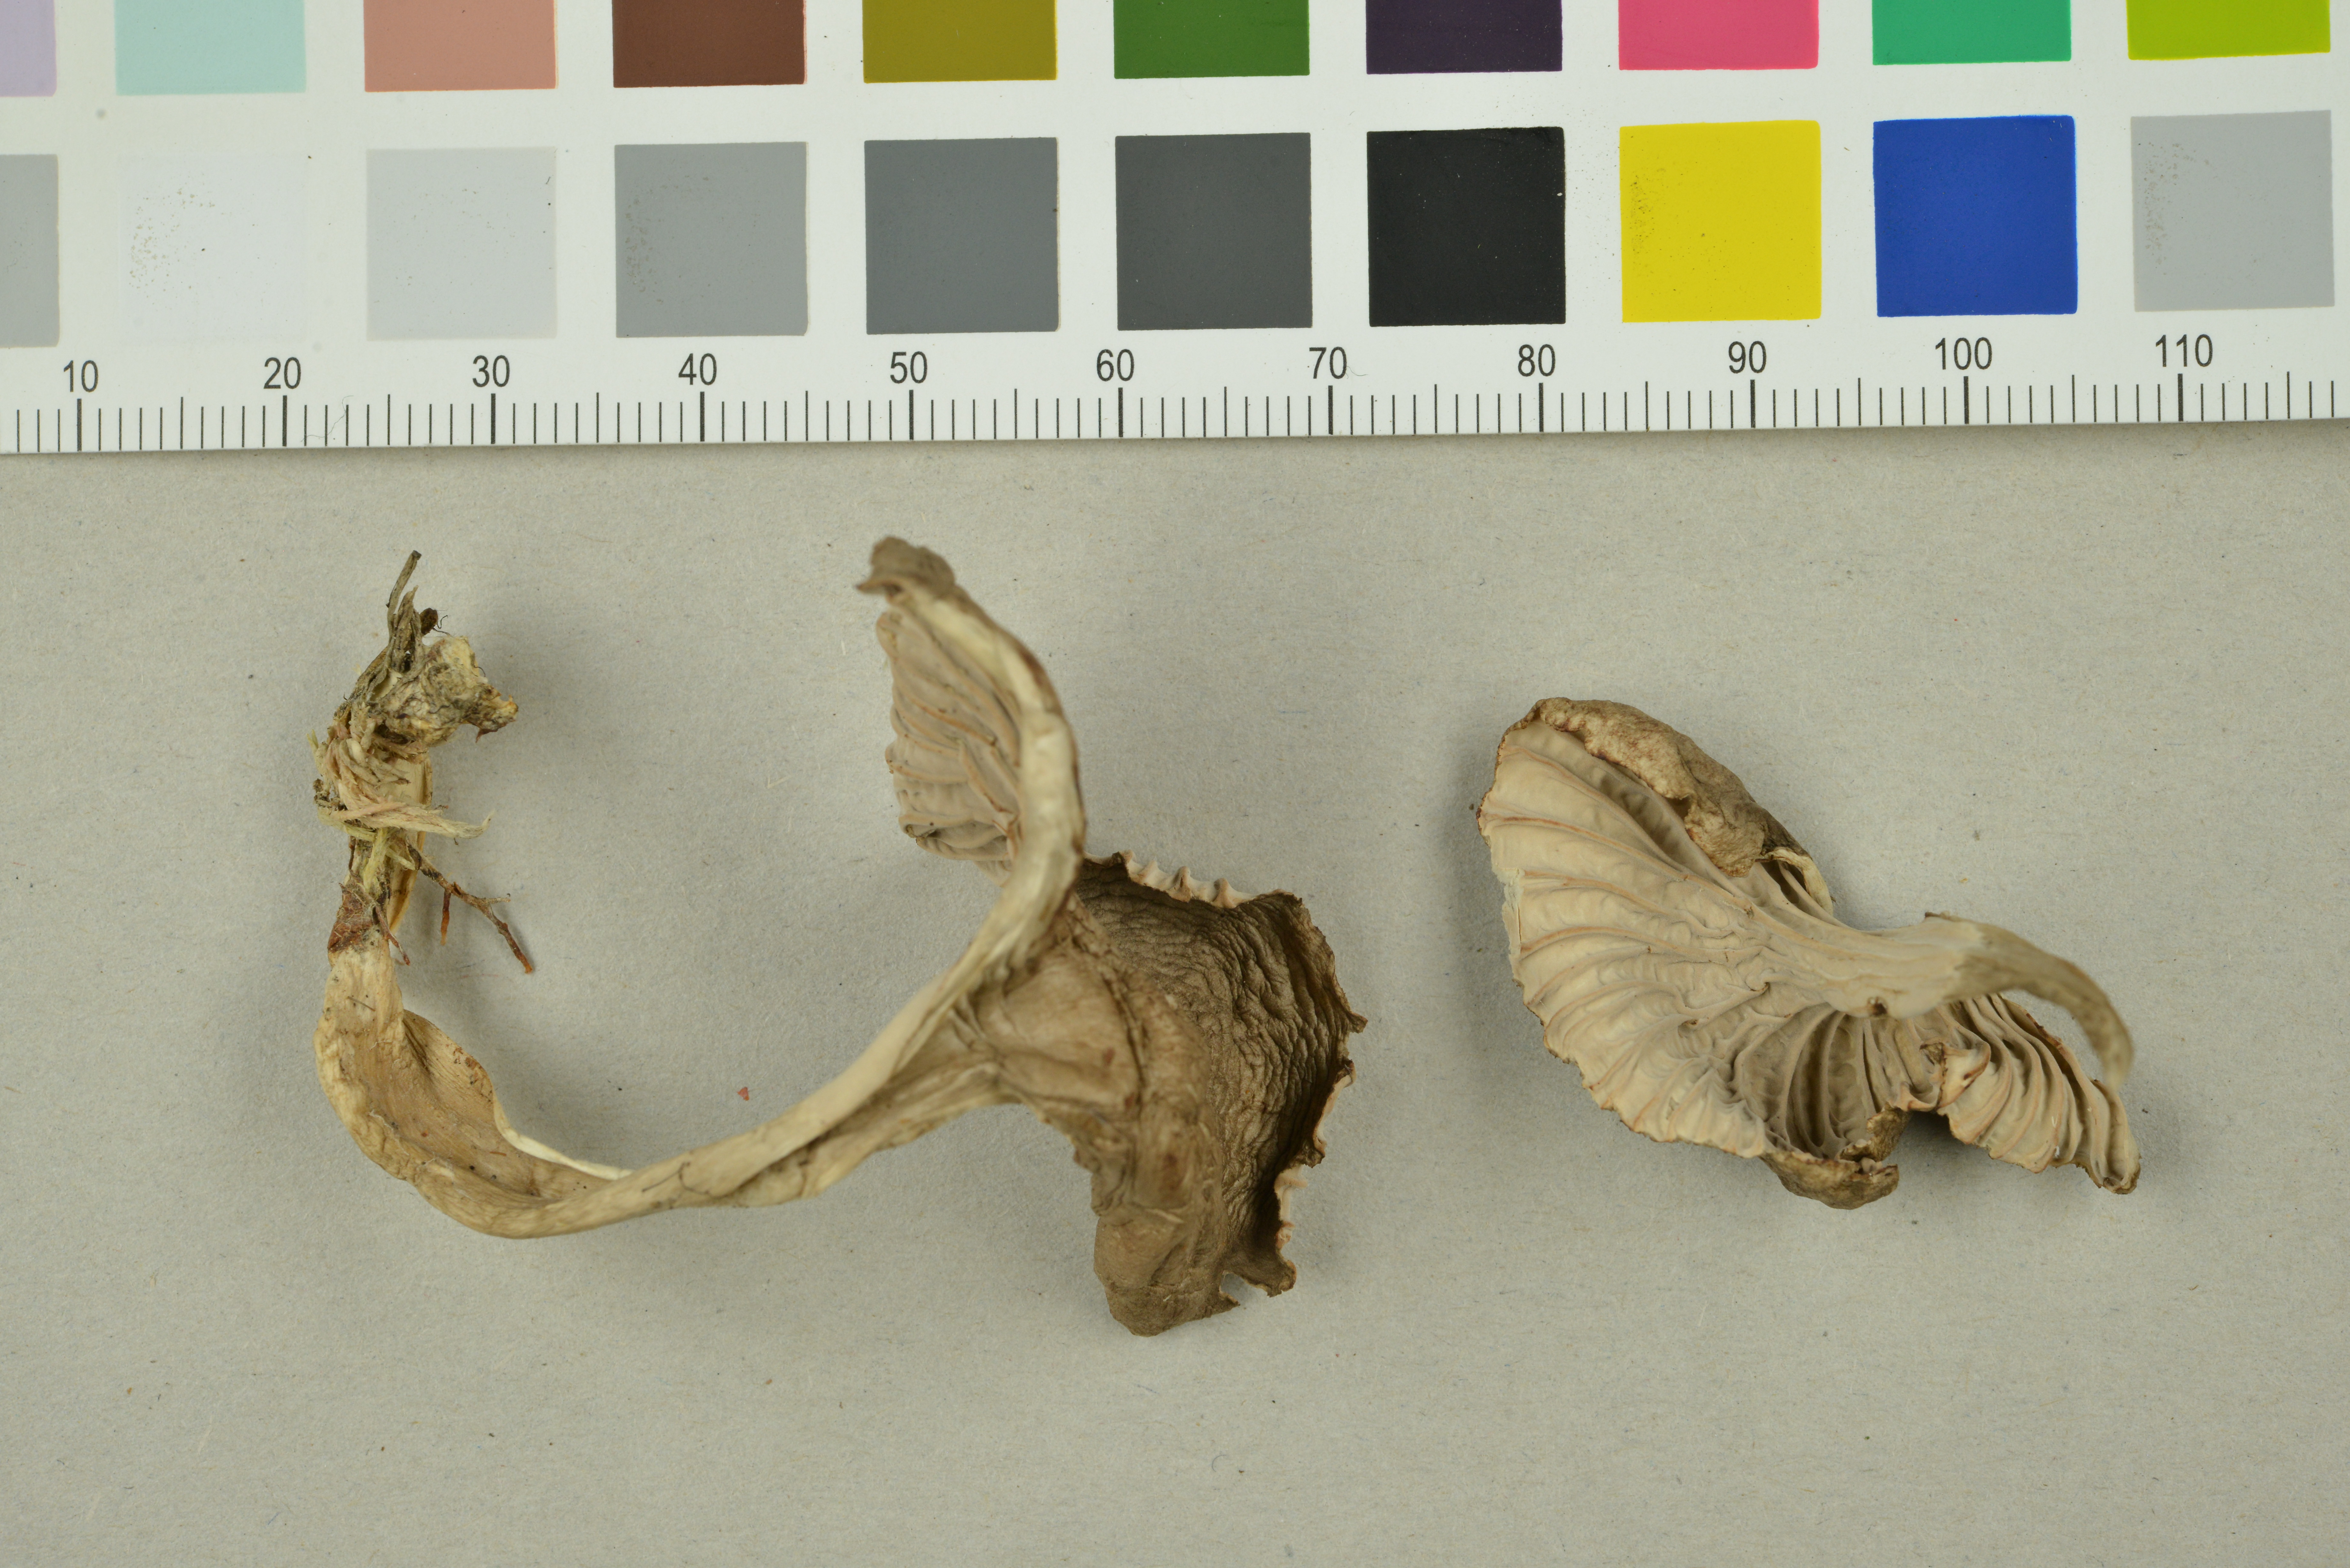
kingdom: Fungi
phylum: Basidiomycota
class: Agaricomycetes
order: Cantharellales
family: Hydnaceae
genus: Craterellus
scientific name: Craterellus tubaeformis
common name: Yellowfoot
